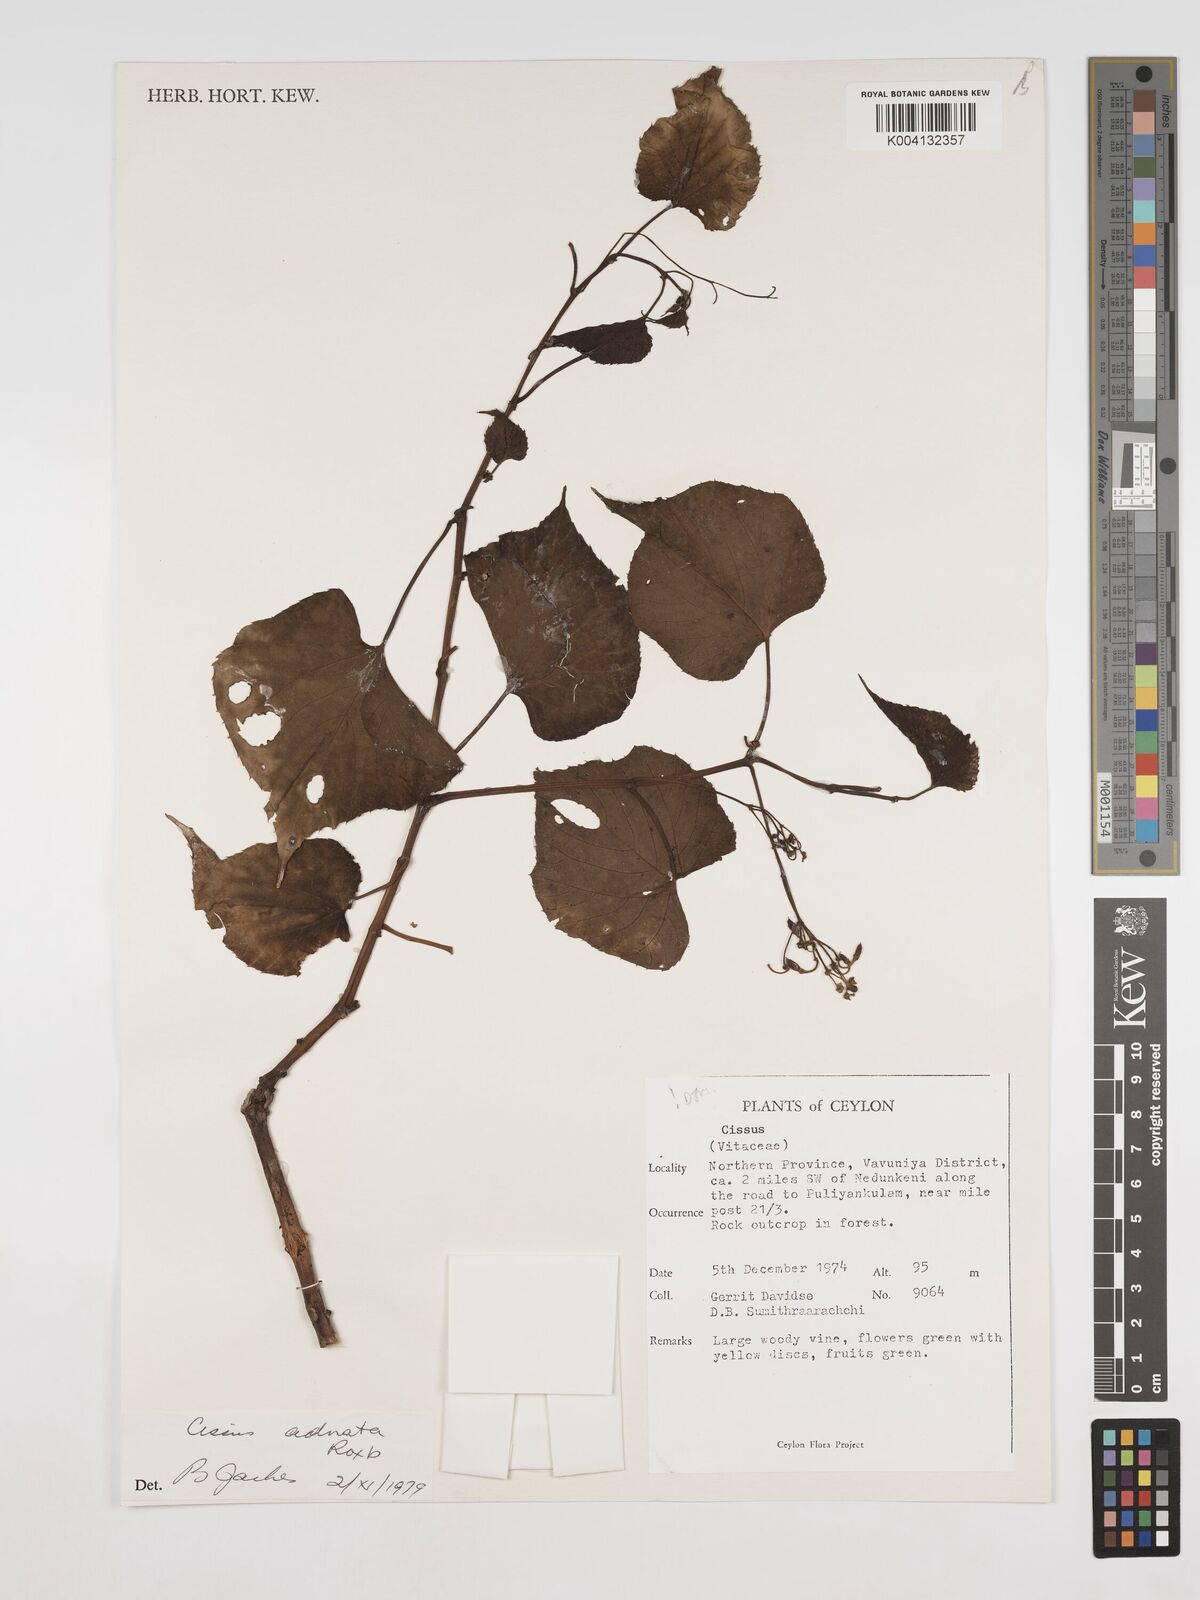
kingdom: Plantae
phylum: Tracheophyta
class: Magnoliopsida
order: Vitales
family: Vitaceae
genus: Cissus
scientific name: Cissus adnata
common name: Heart-leaf-grape
